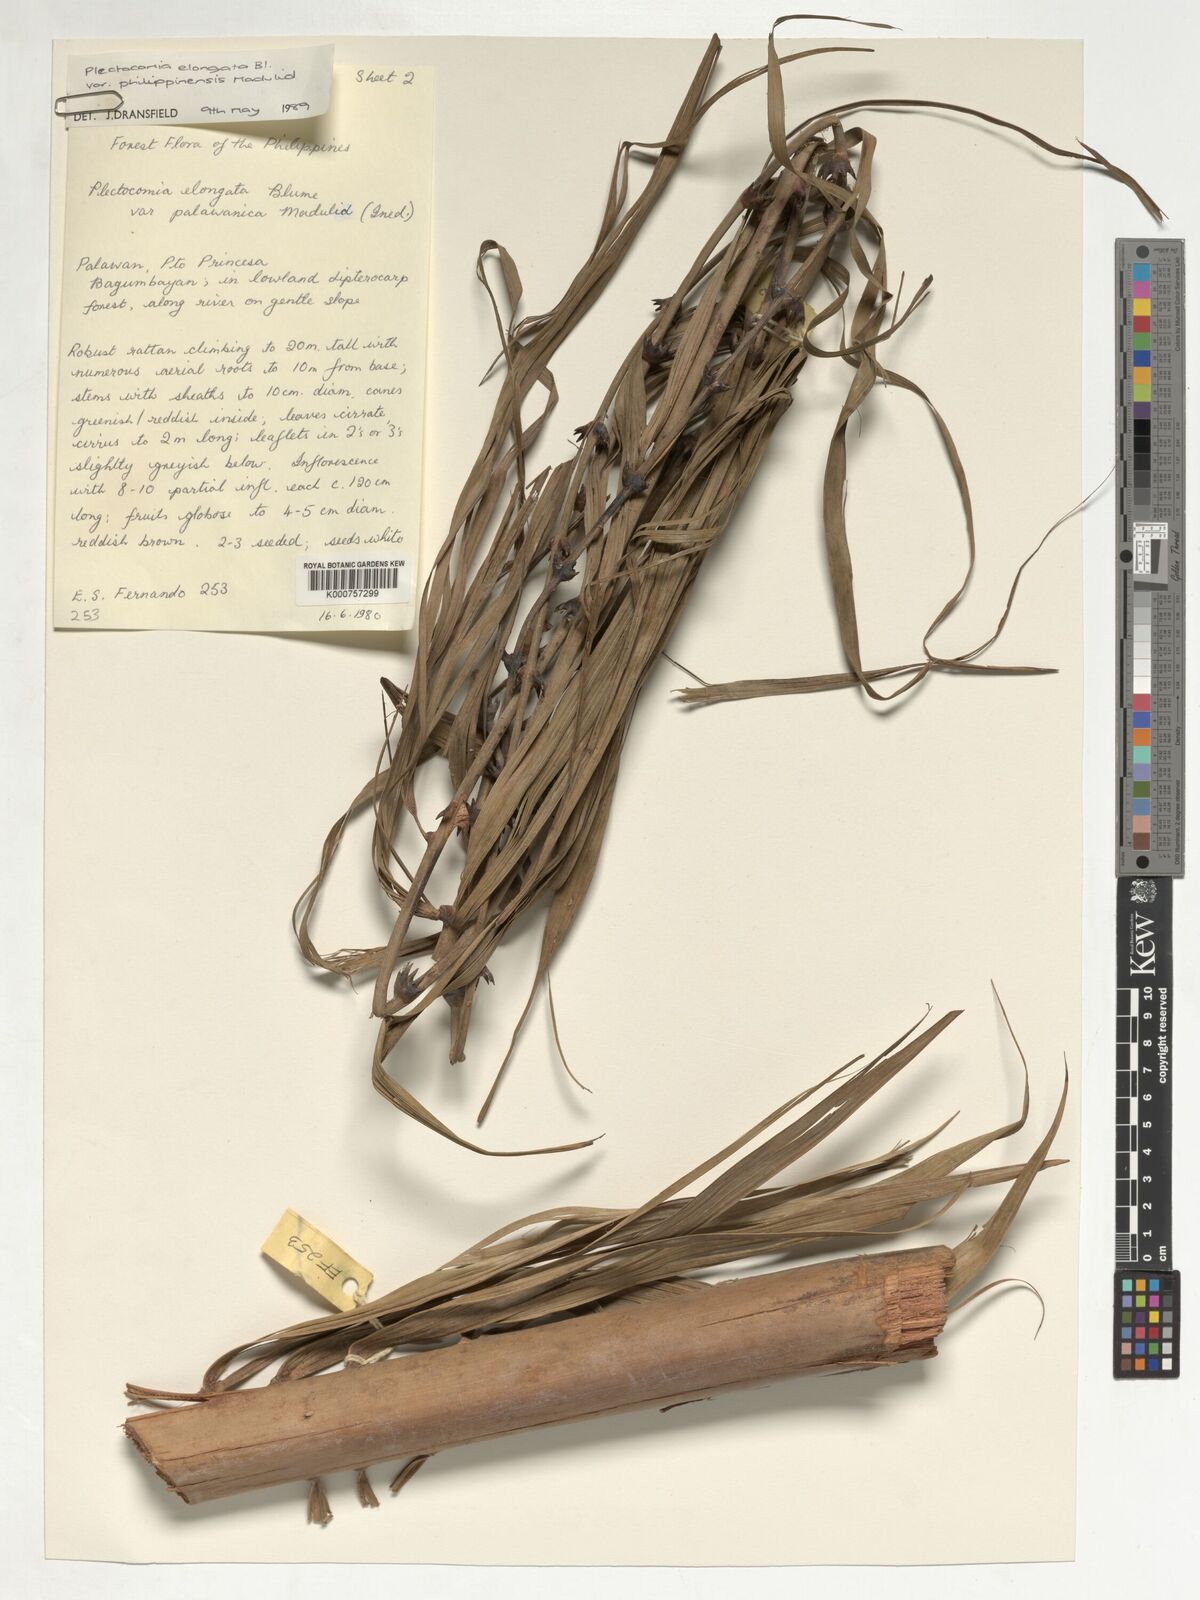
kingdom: Plantae
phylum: Tracheophyta
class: Liliopsida
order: Arecales
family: Arecaceae
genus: Plectocomia
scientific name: Plectocomia elongata
